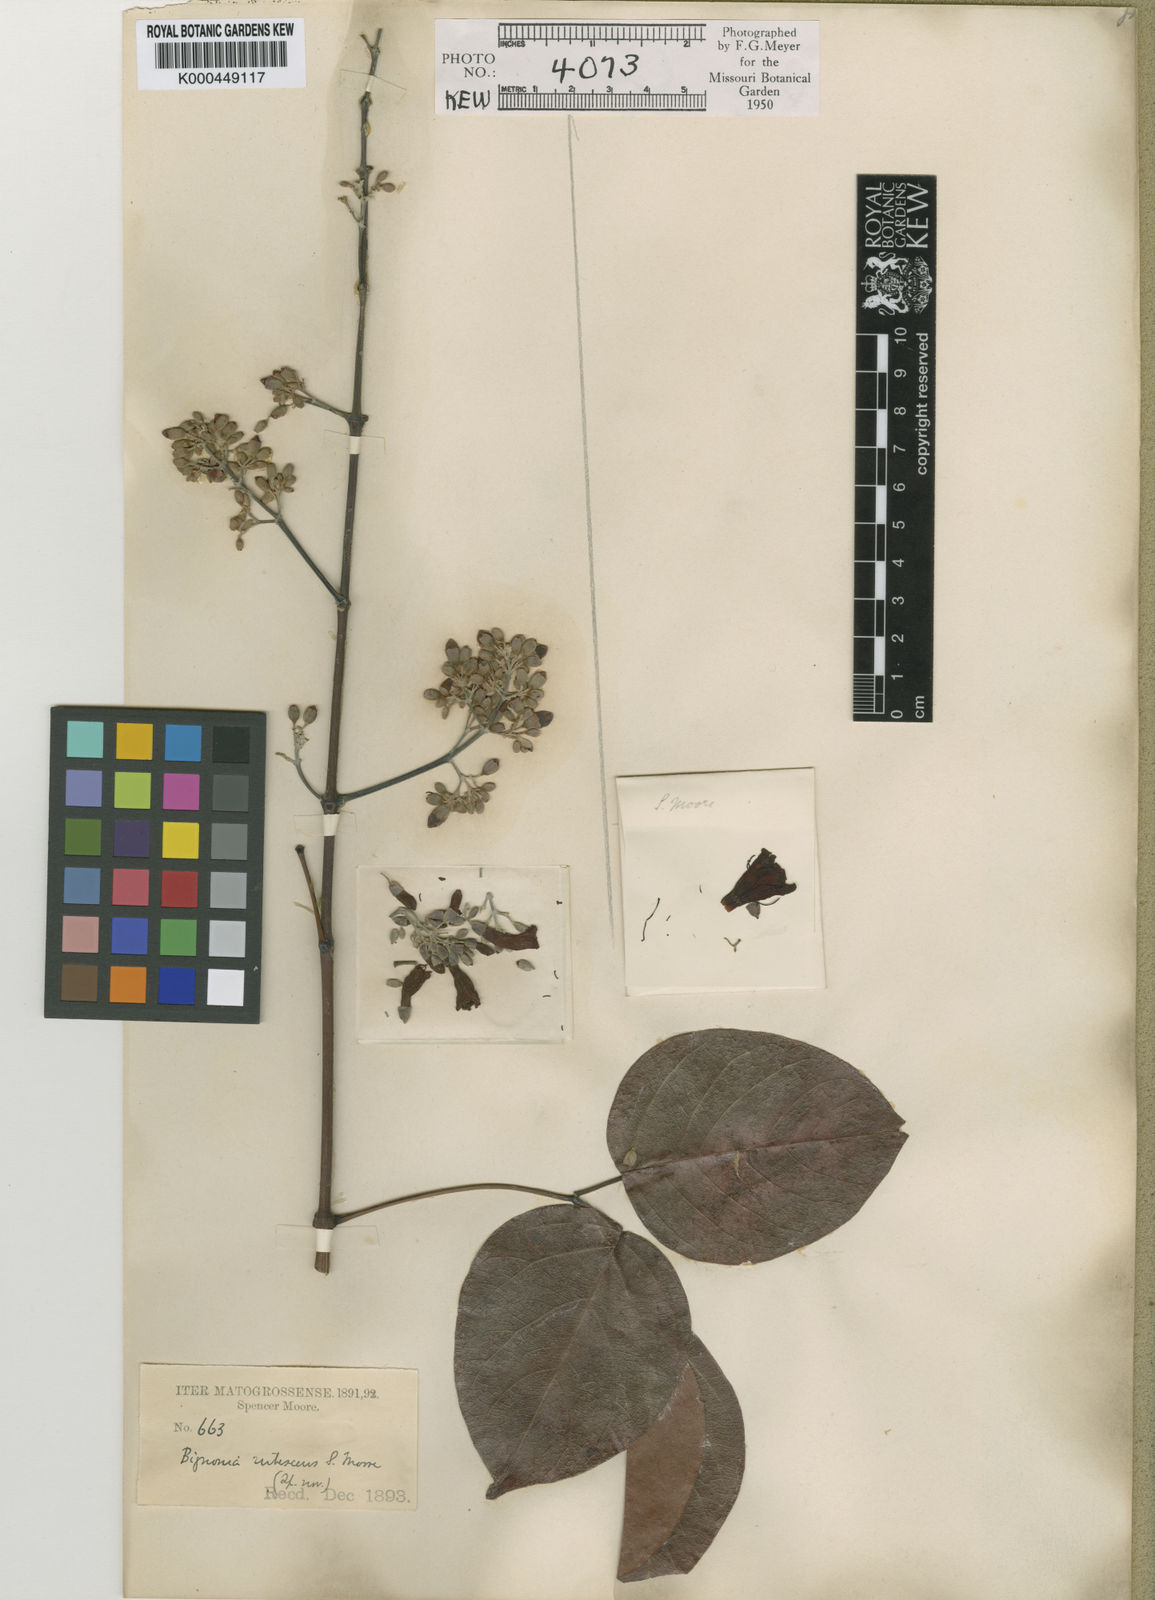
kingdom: Plantae
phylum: Tracheophyta
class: Magnoliopsida
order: Lamiales
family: Bignoniaceae
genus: Fridericia
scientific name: Fridericia chica
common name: Cricketvine
